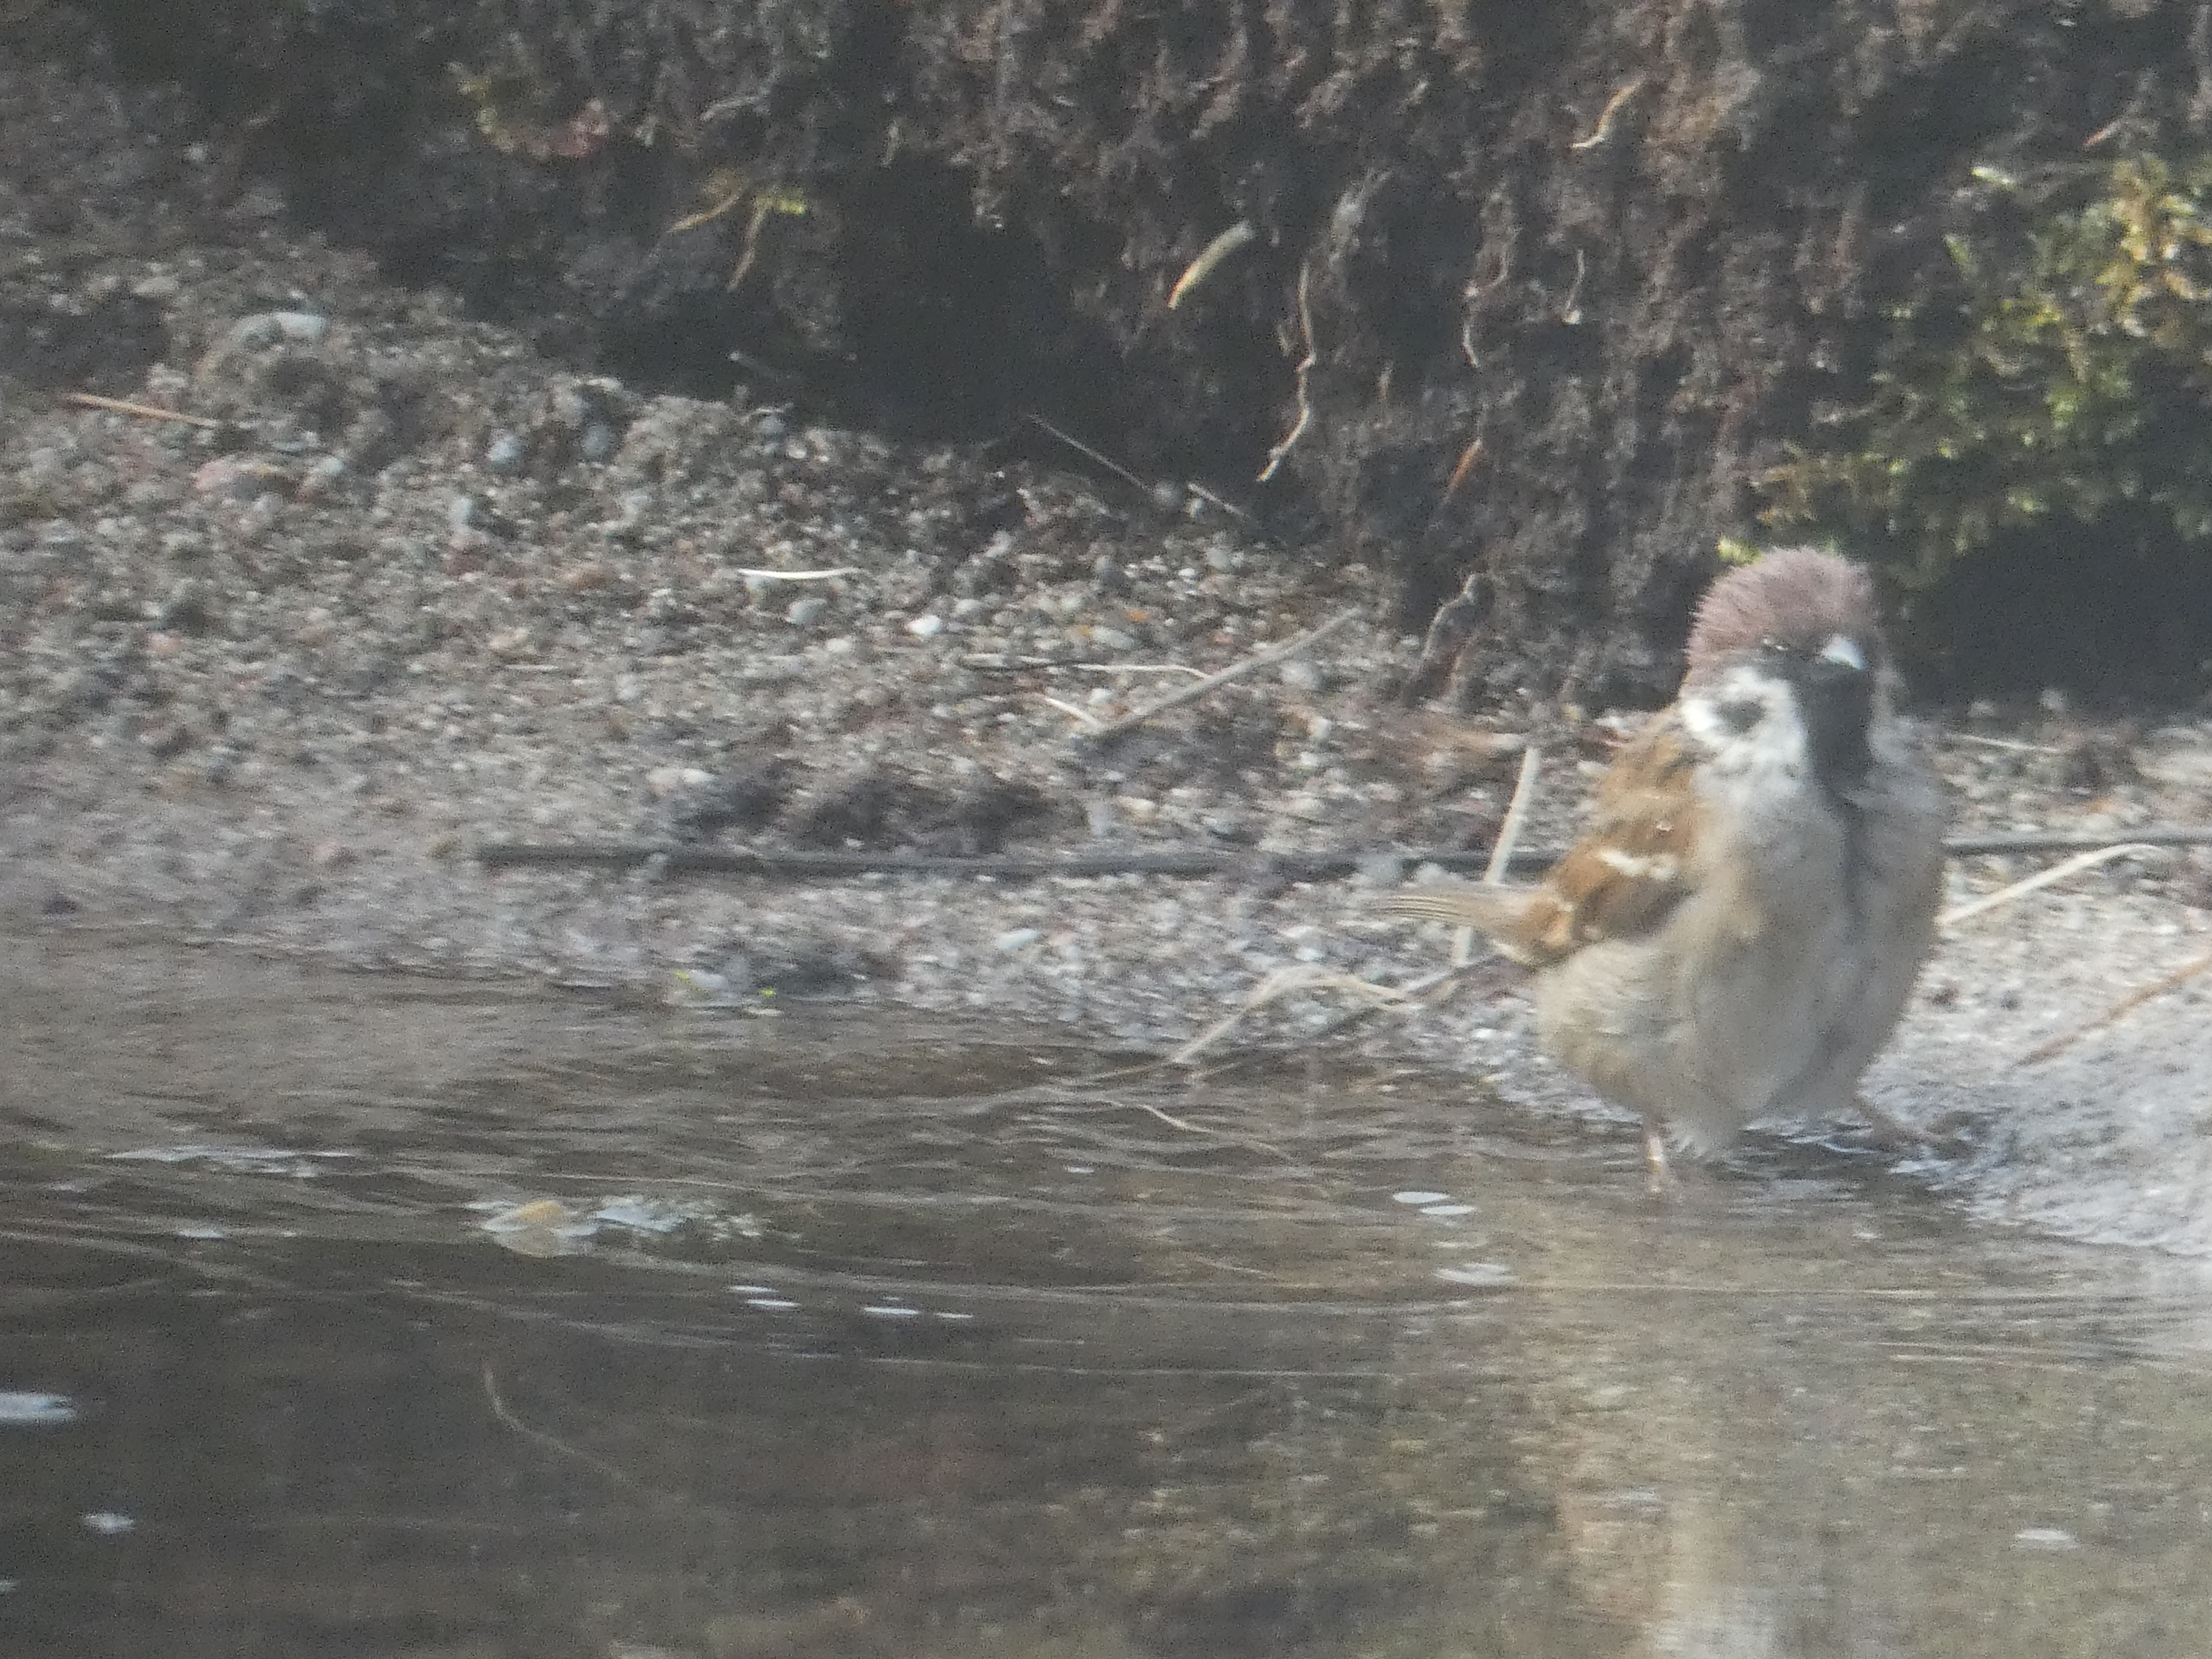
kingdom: Animalia
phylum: Chordata
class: Aves
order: Passeriformes
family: Passeridae
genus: Passer
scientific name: Passer montanus
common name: Skovspurv
